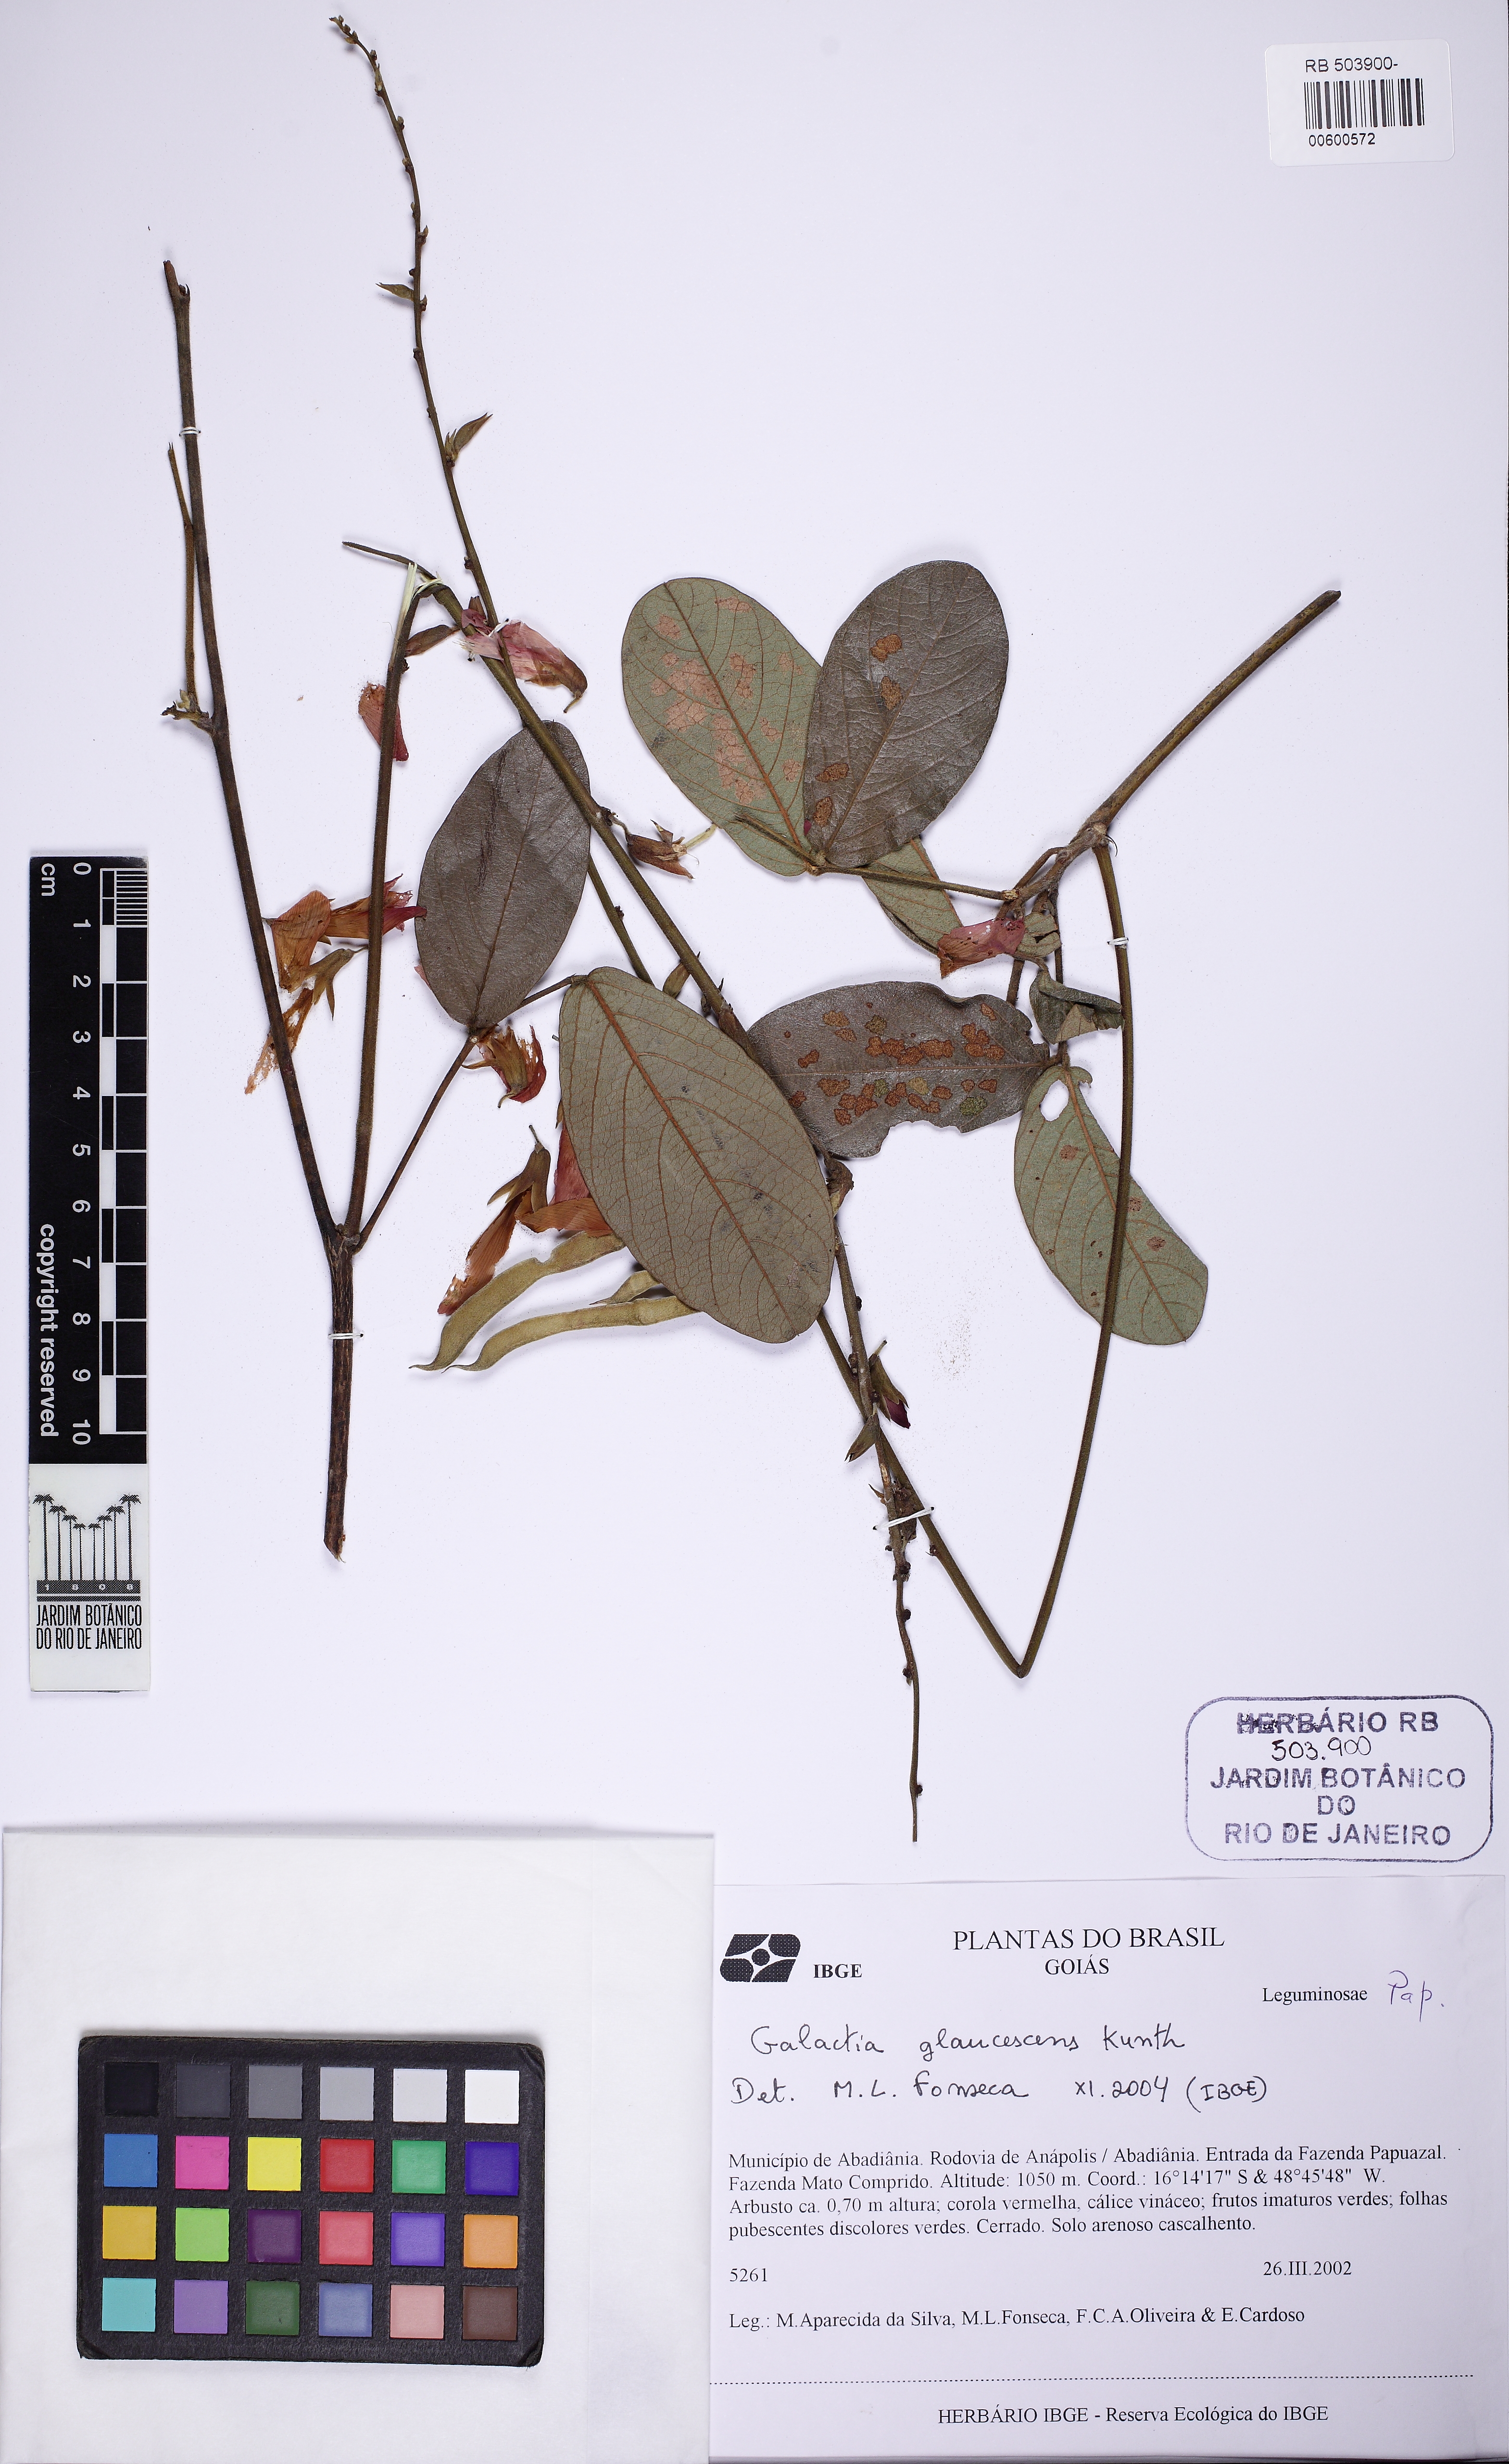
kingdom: Plantae
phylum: Tracheophyta
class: Magnoliopsida
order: Fabales
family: Fabaceae
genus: Galactia
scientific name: Galactia glaucescens
